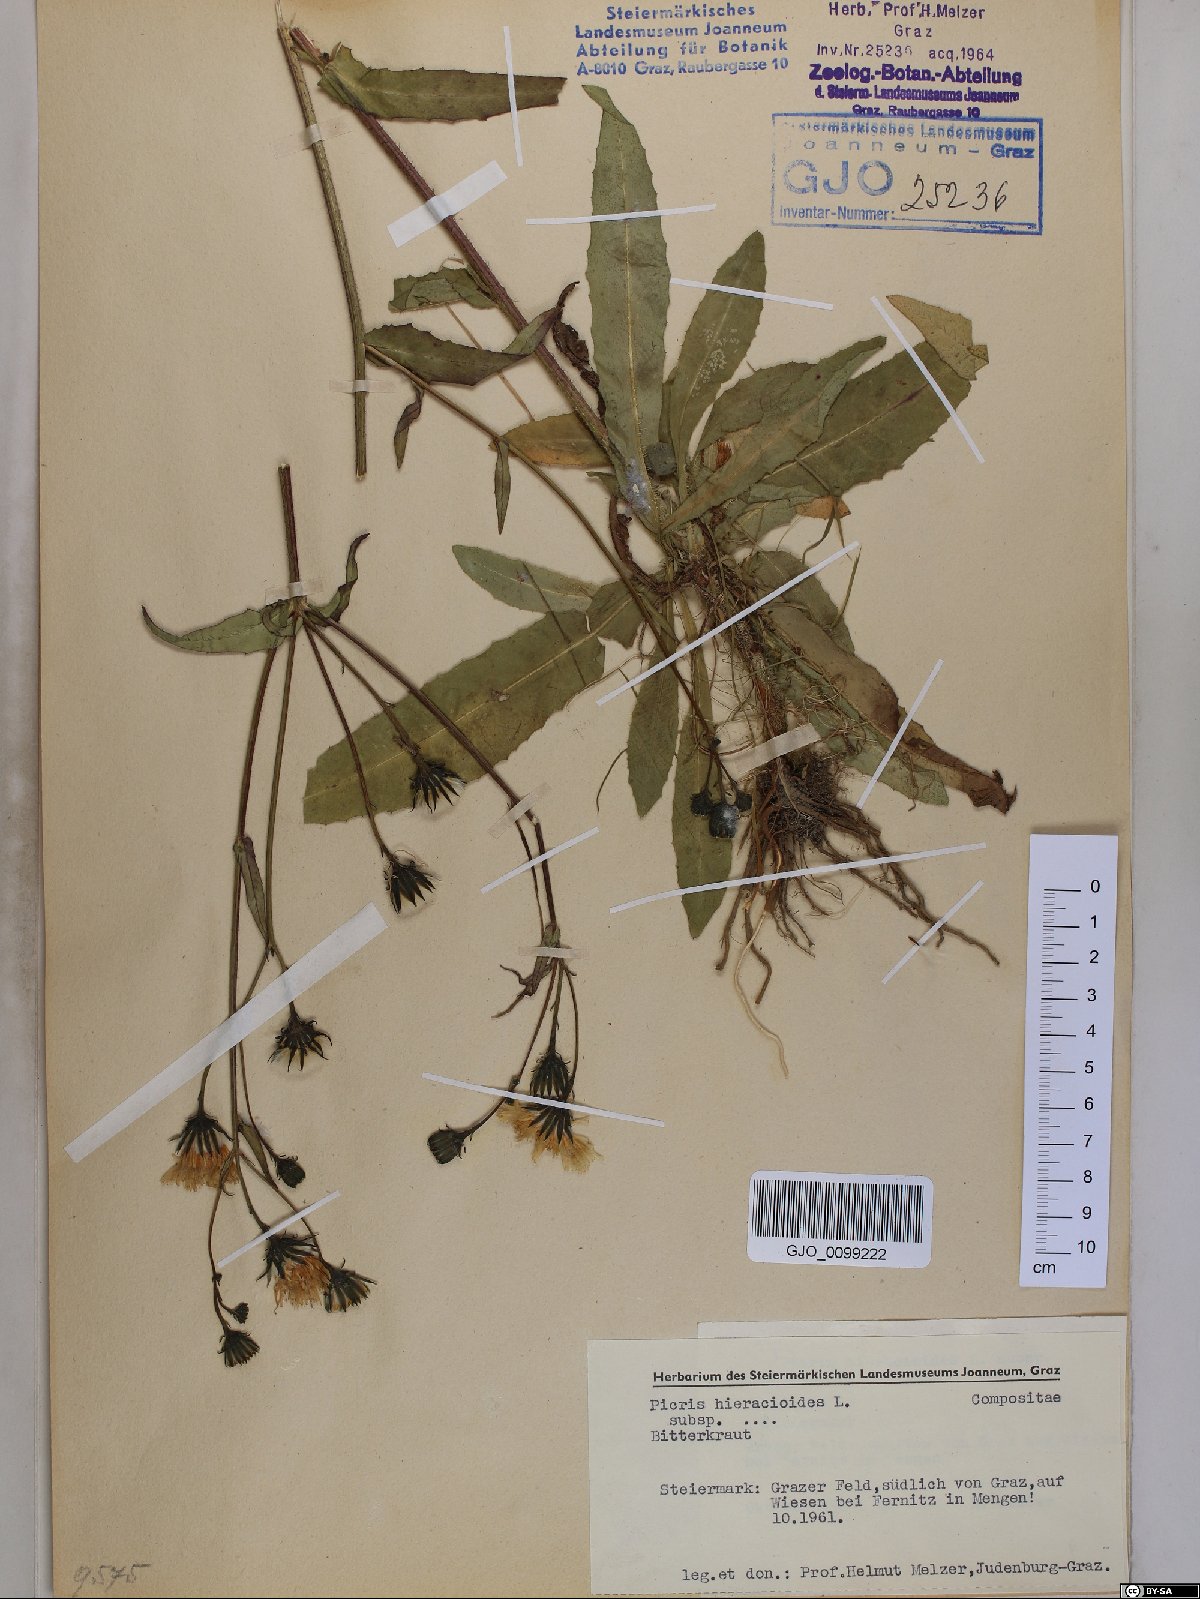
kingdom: Plantae
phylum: Tracheophyta
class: Magnoliopsida
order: Asterales
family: Asteraceae
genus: Picris
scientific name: Picris hieracioides
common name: Hawkweed oxtongue
